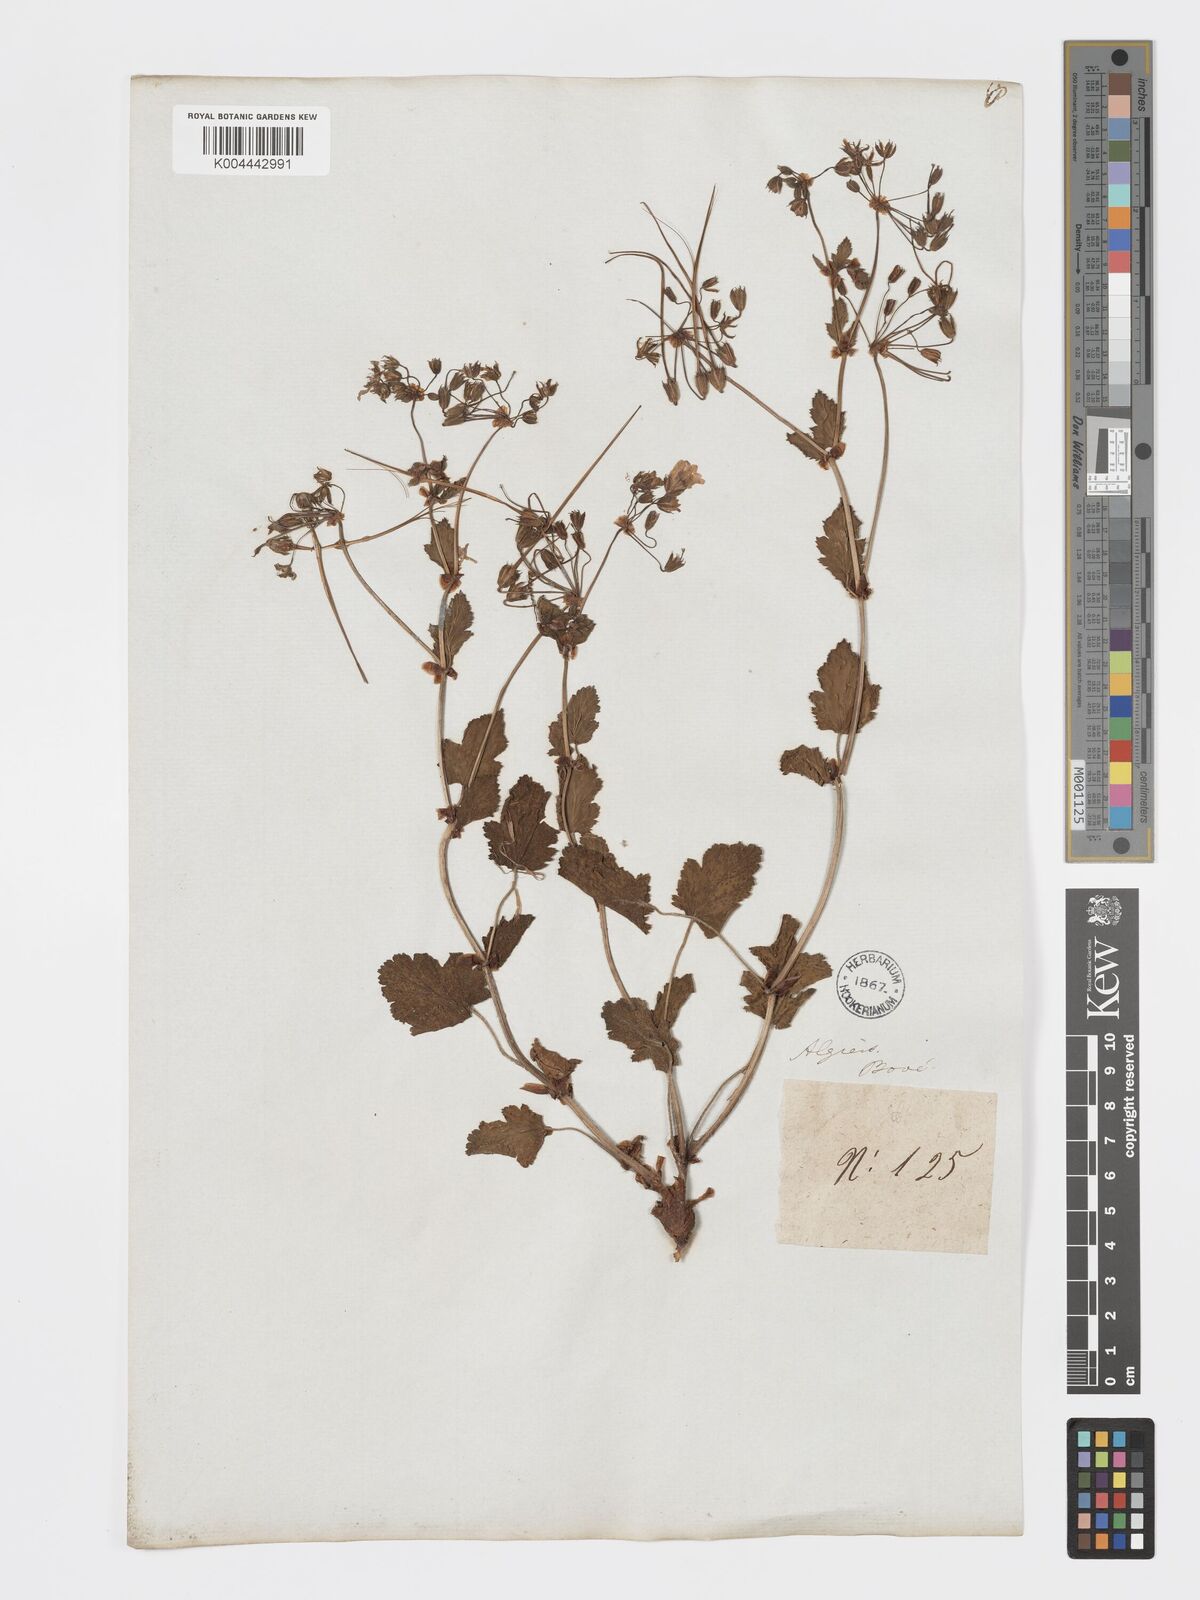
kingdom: Plantae
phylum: Tracheophyta
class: Magnoliopsida
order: Geraniales
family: Geraniaceae
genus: Erodium
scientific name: Erodium munbyanum
